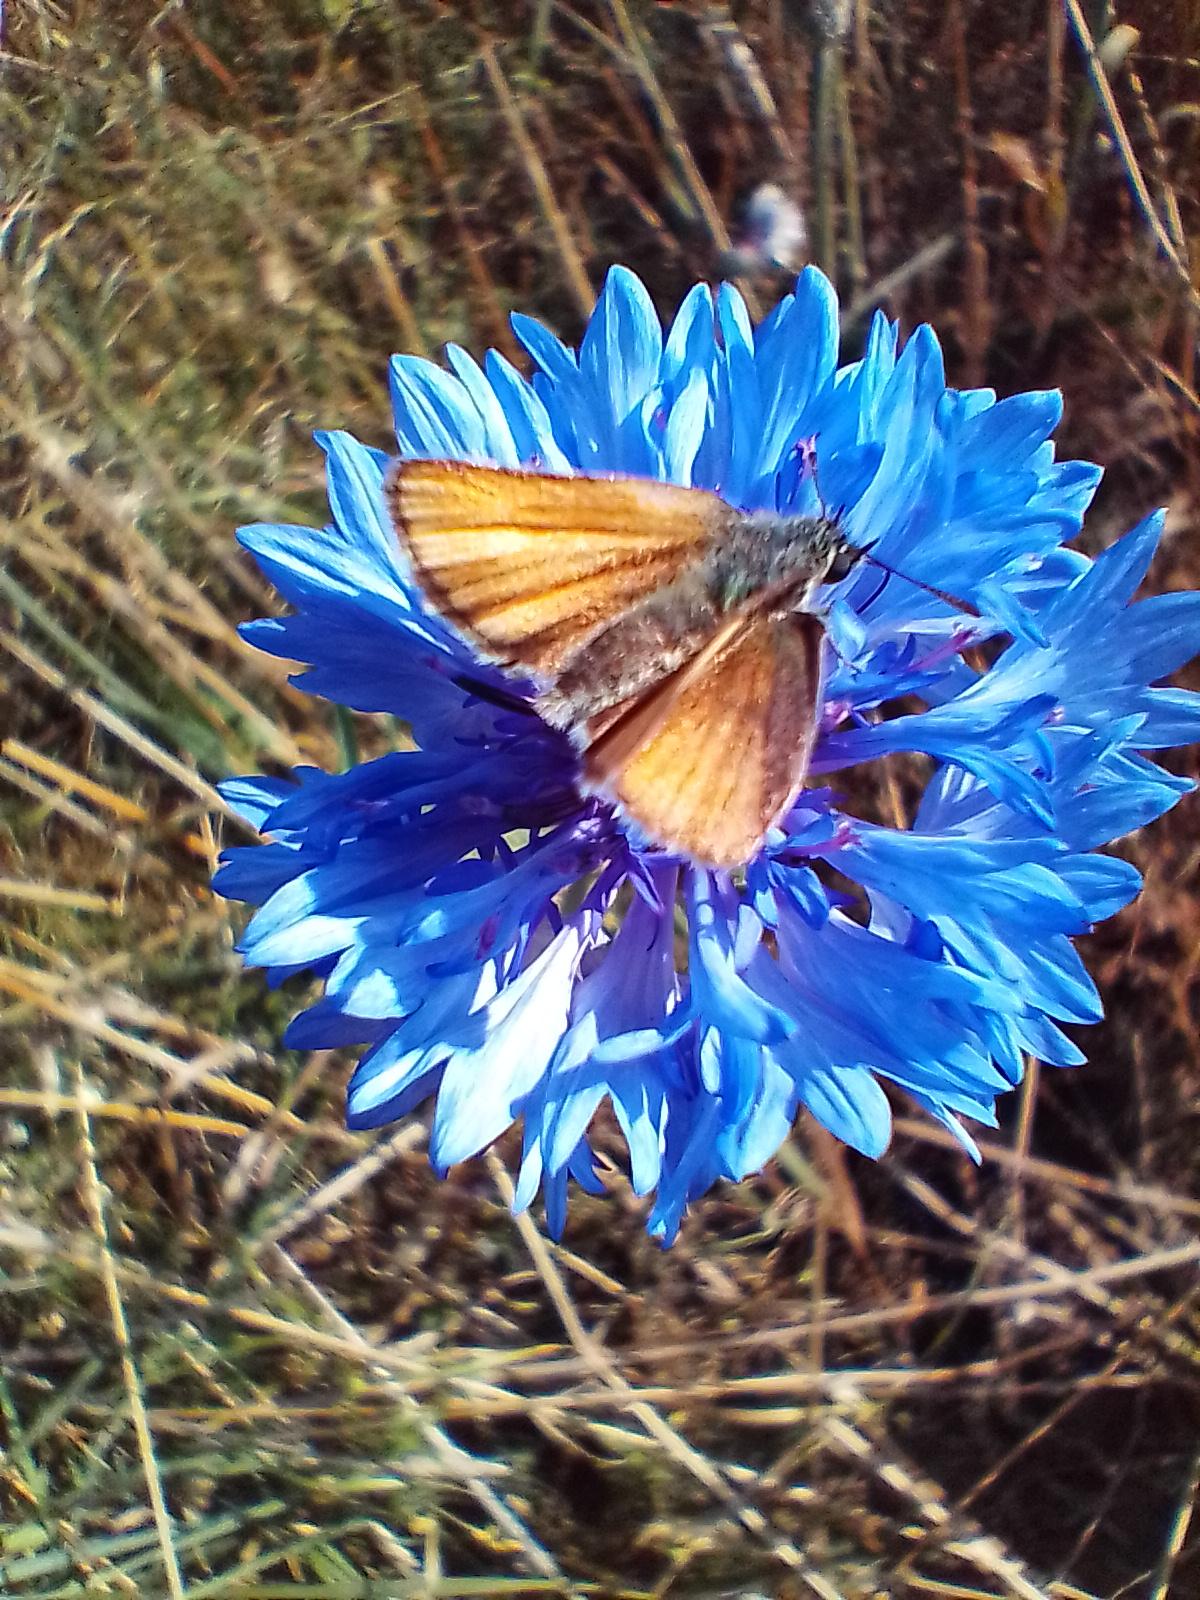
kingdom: Animalia
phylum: Arthropoda
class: Insecta
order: Lepidoptera
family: Hesperiidae
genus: Thymelicus
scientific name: Thymelicus lineola
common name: Stregbredpande
